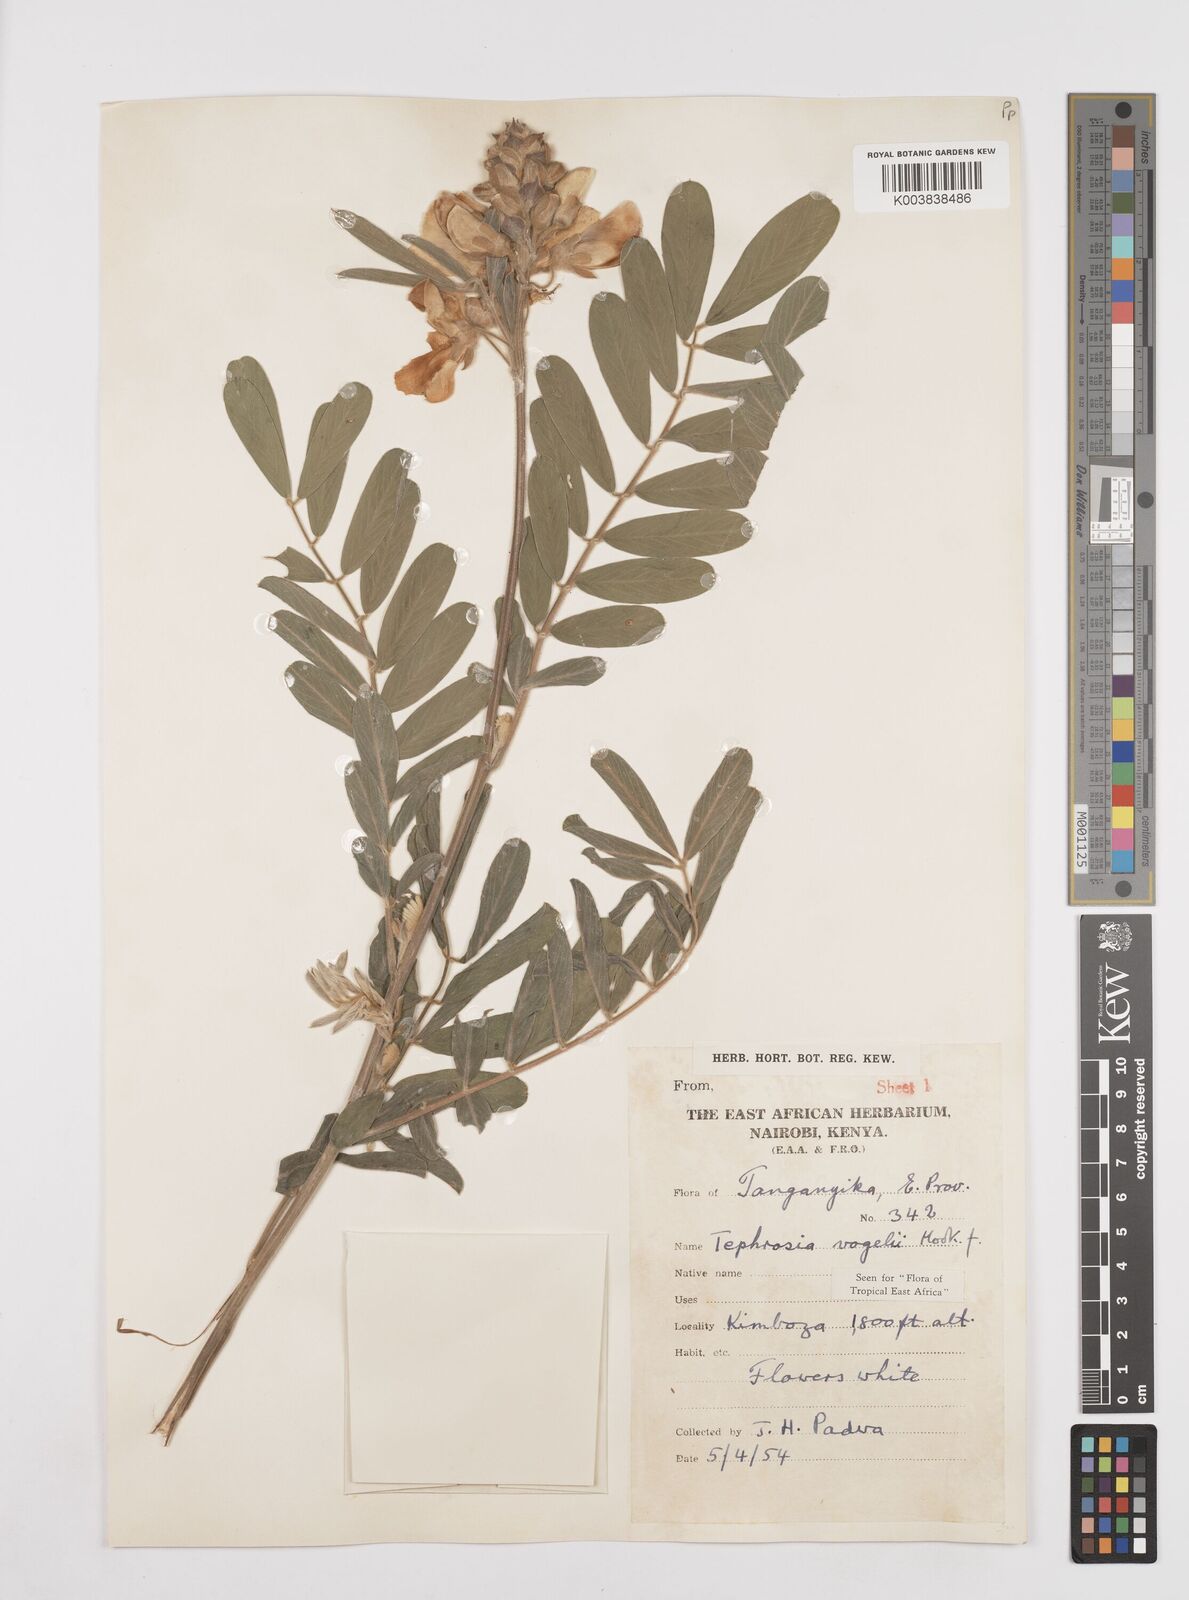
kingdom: Plantae
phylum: Tracheophyta
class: Magnoliopsida
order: Fabales
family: Fabaceae
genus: Tephrosia
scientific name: Tephrosia vogelii
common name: Vogel tephrosia
